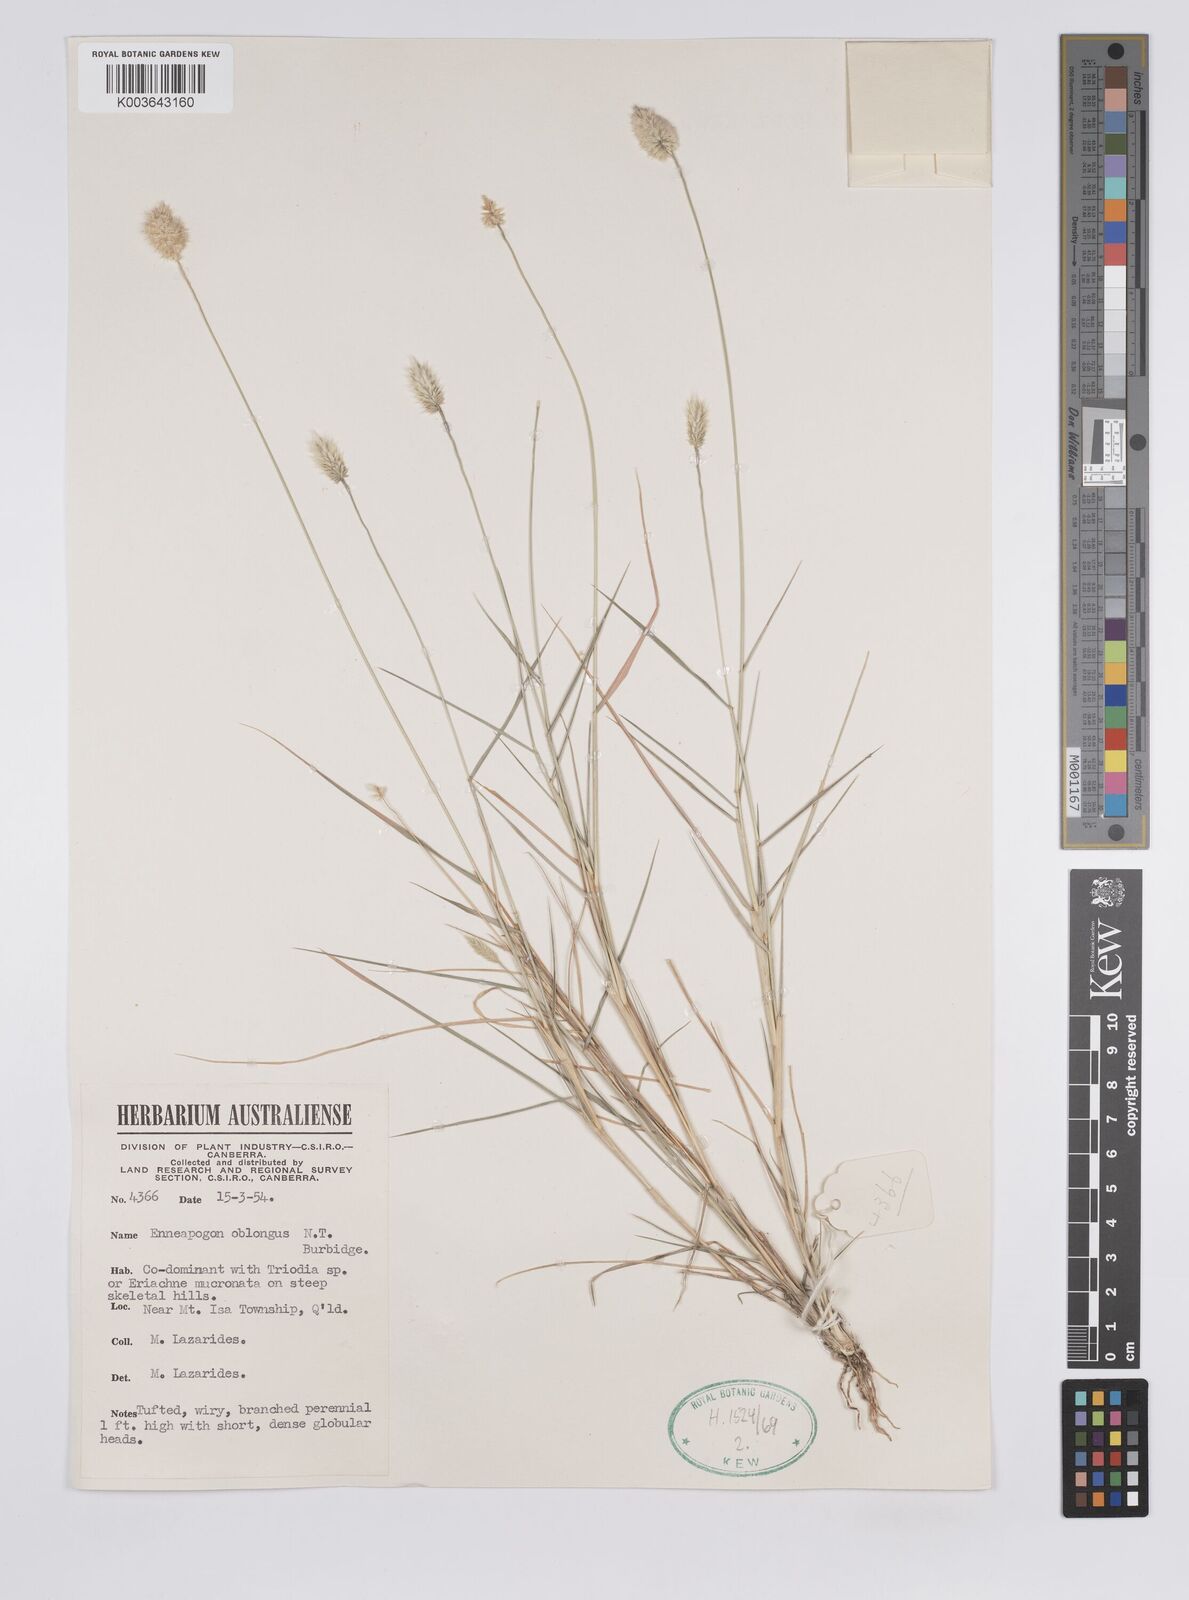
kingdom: Plantae
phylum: Tracheophyta
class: Liliopsida
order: Poales
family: Poaceae
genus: Enneapogon
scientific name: Enneapogon lindleyanus
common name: Conetop nineawn
